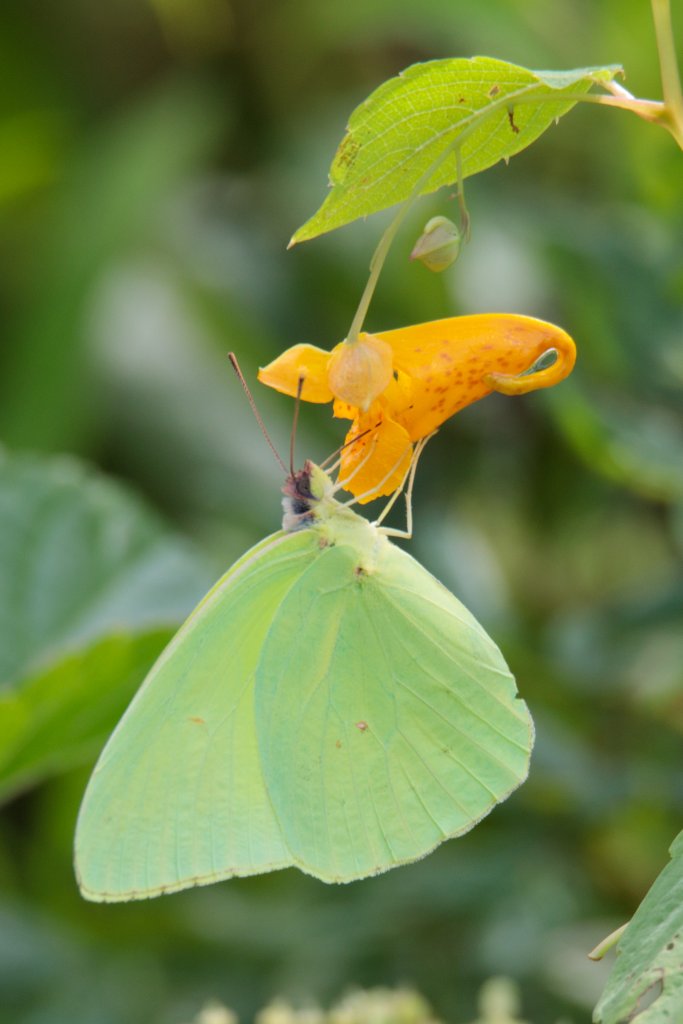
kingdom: Animalia
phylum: Arthropoda
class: Insecta
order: Lepidoptera
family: Pieridae
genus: Phoebis
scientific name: Phoebis sennae
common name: Cloudless Sulphur
